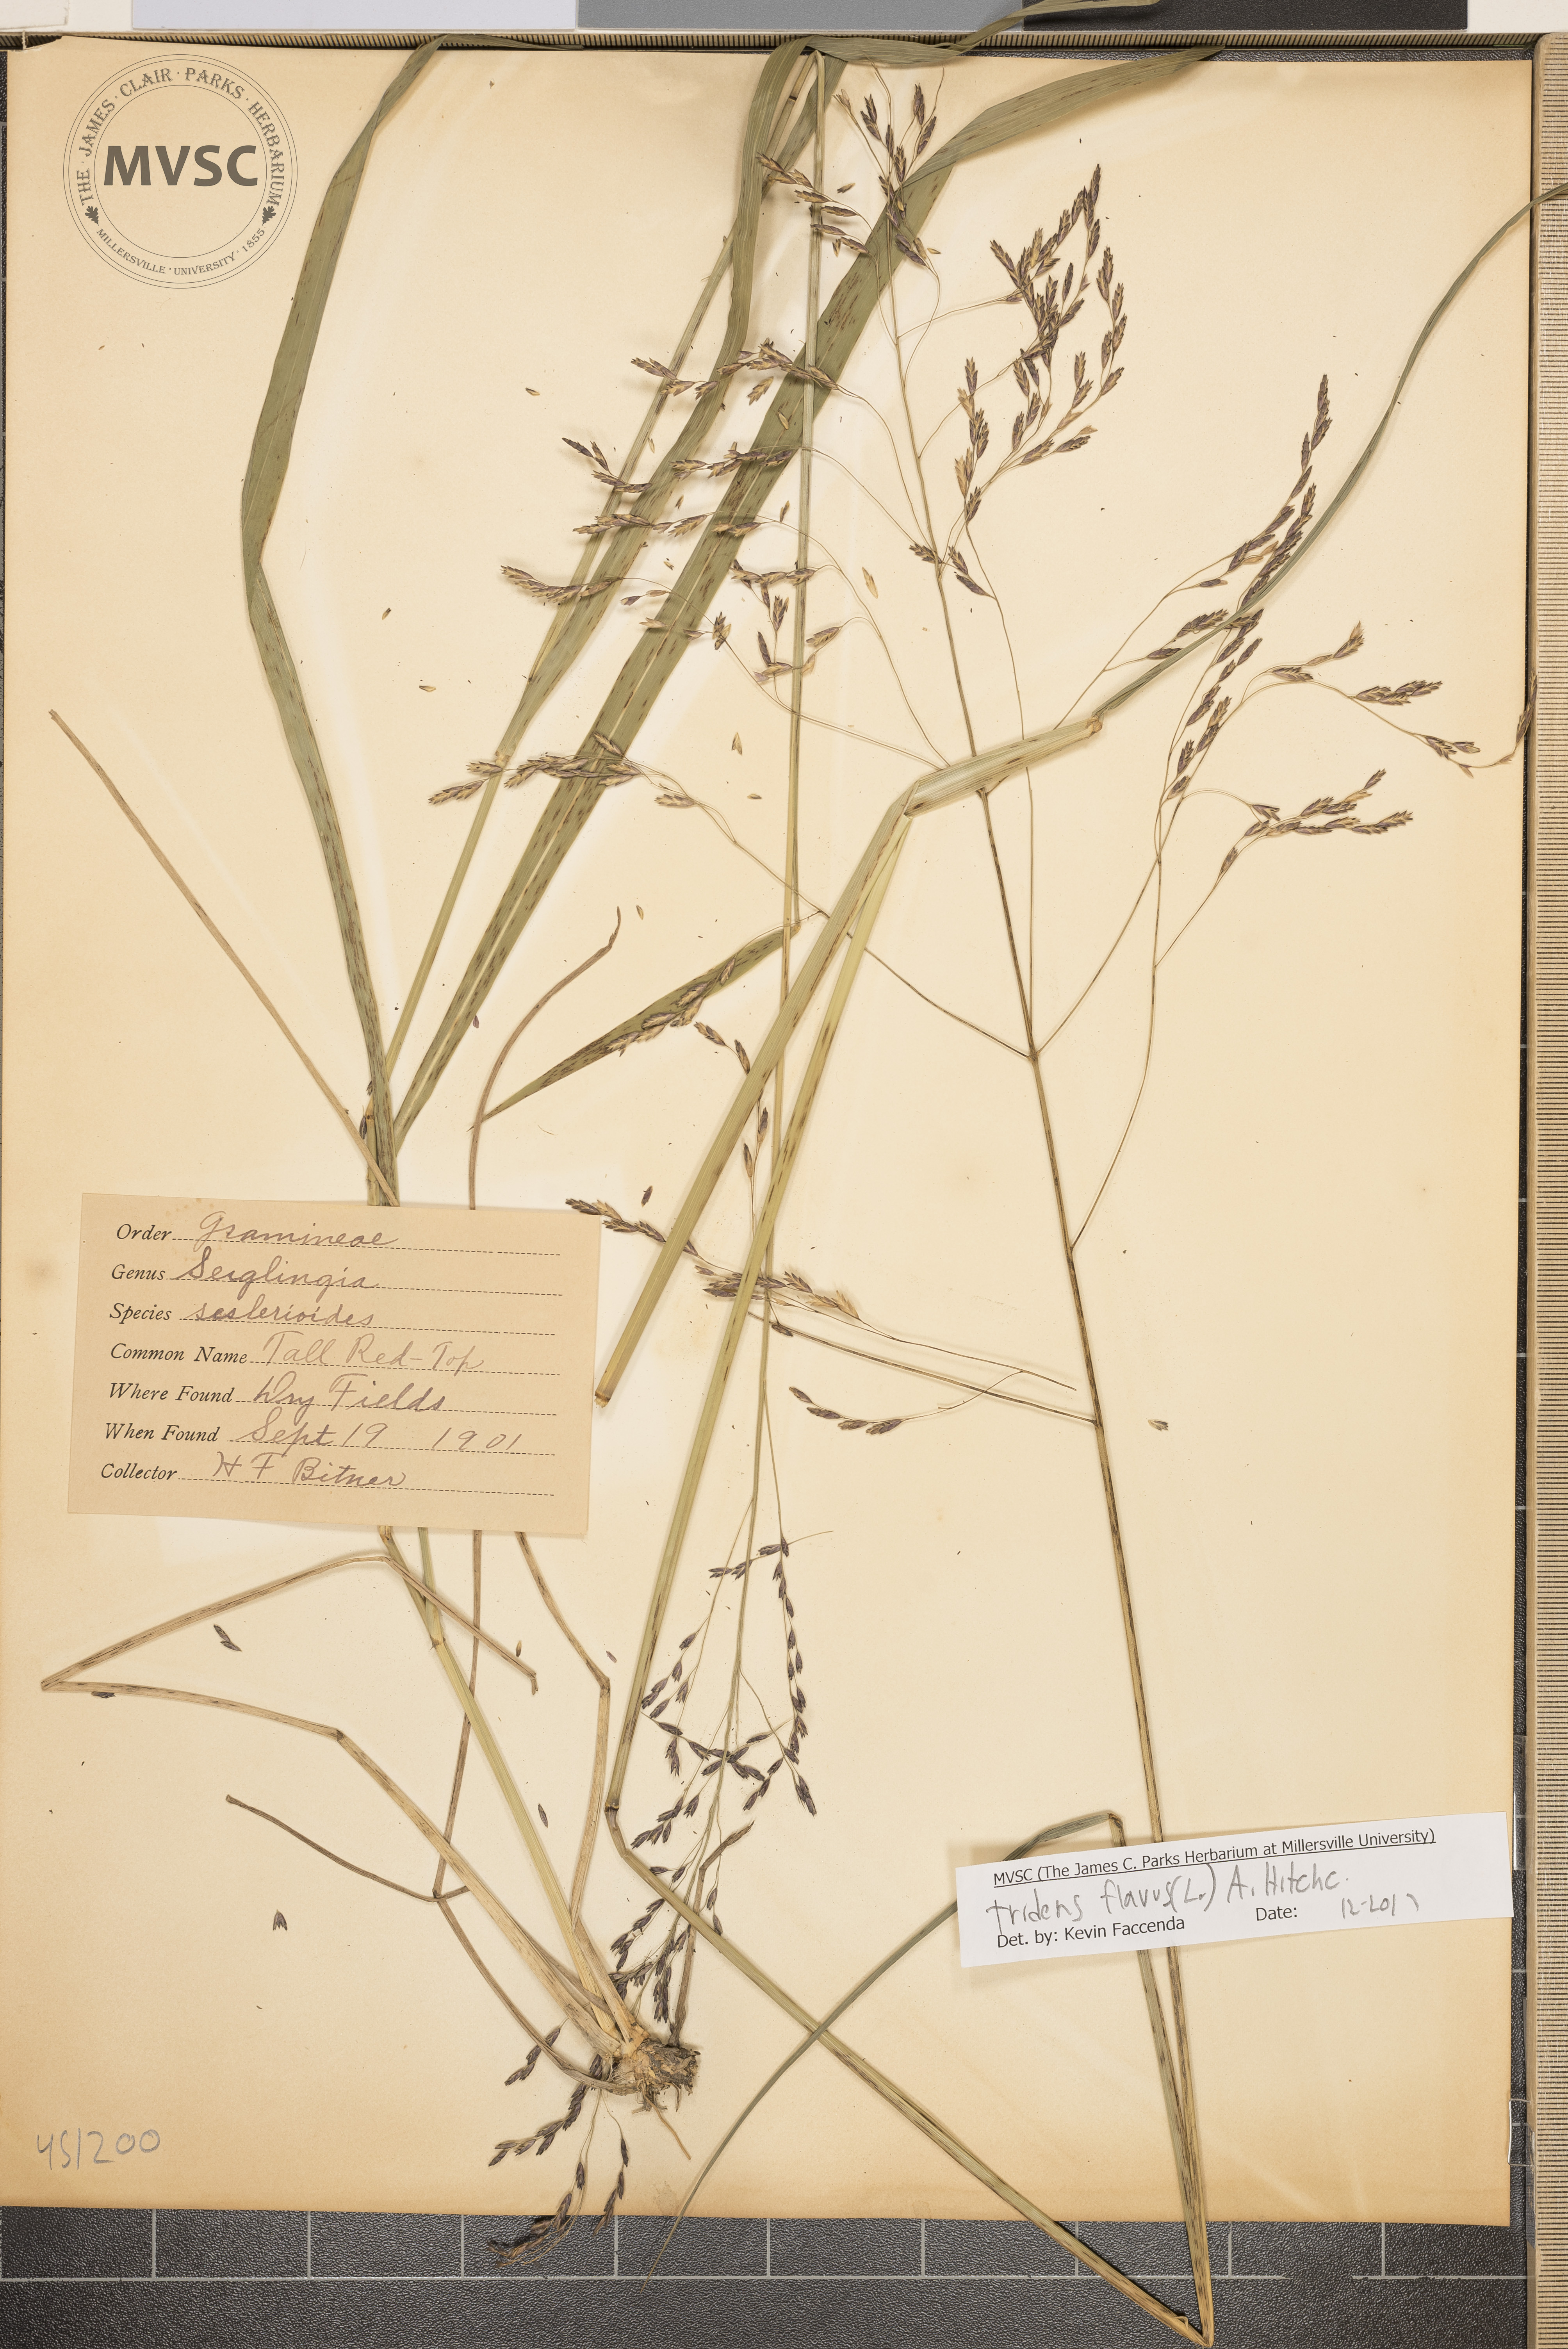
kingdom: Plantae
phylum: Tracheophyta
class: Liliopsida
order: Poales
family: Poaceae
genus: Tridens
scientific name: Tridens flavus
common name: Purpletop
